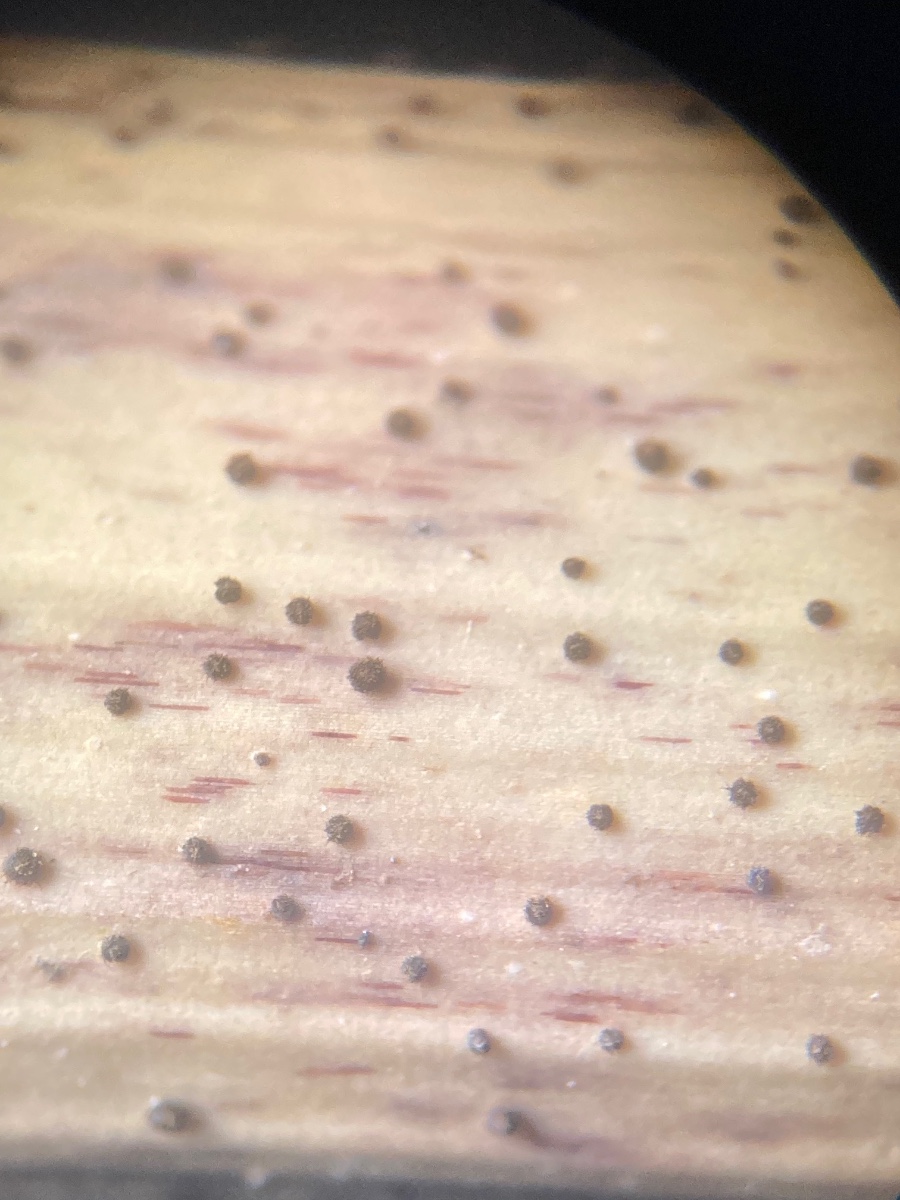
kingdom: Fungi
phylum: Ascomycota
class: Leotiomycetes
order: Helotiales
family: Solenopeziaceae
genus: Lasiobelonium
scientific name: Lasiobelonium nidulus
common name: rede-frynseskive
